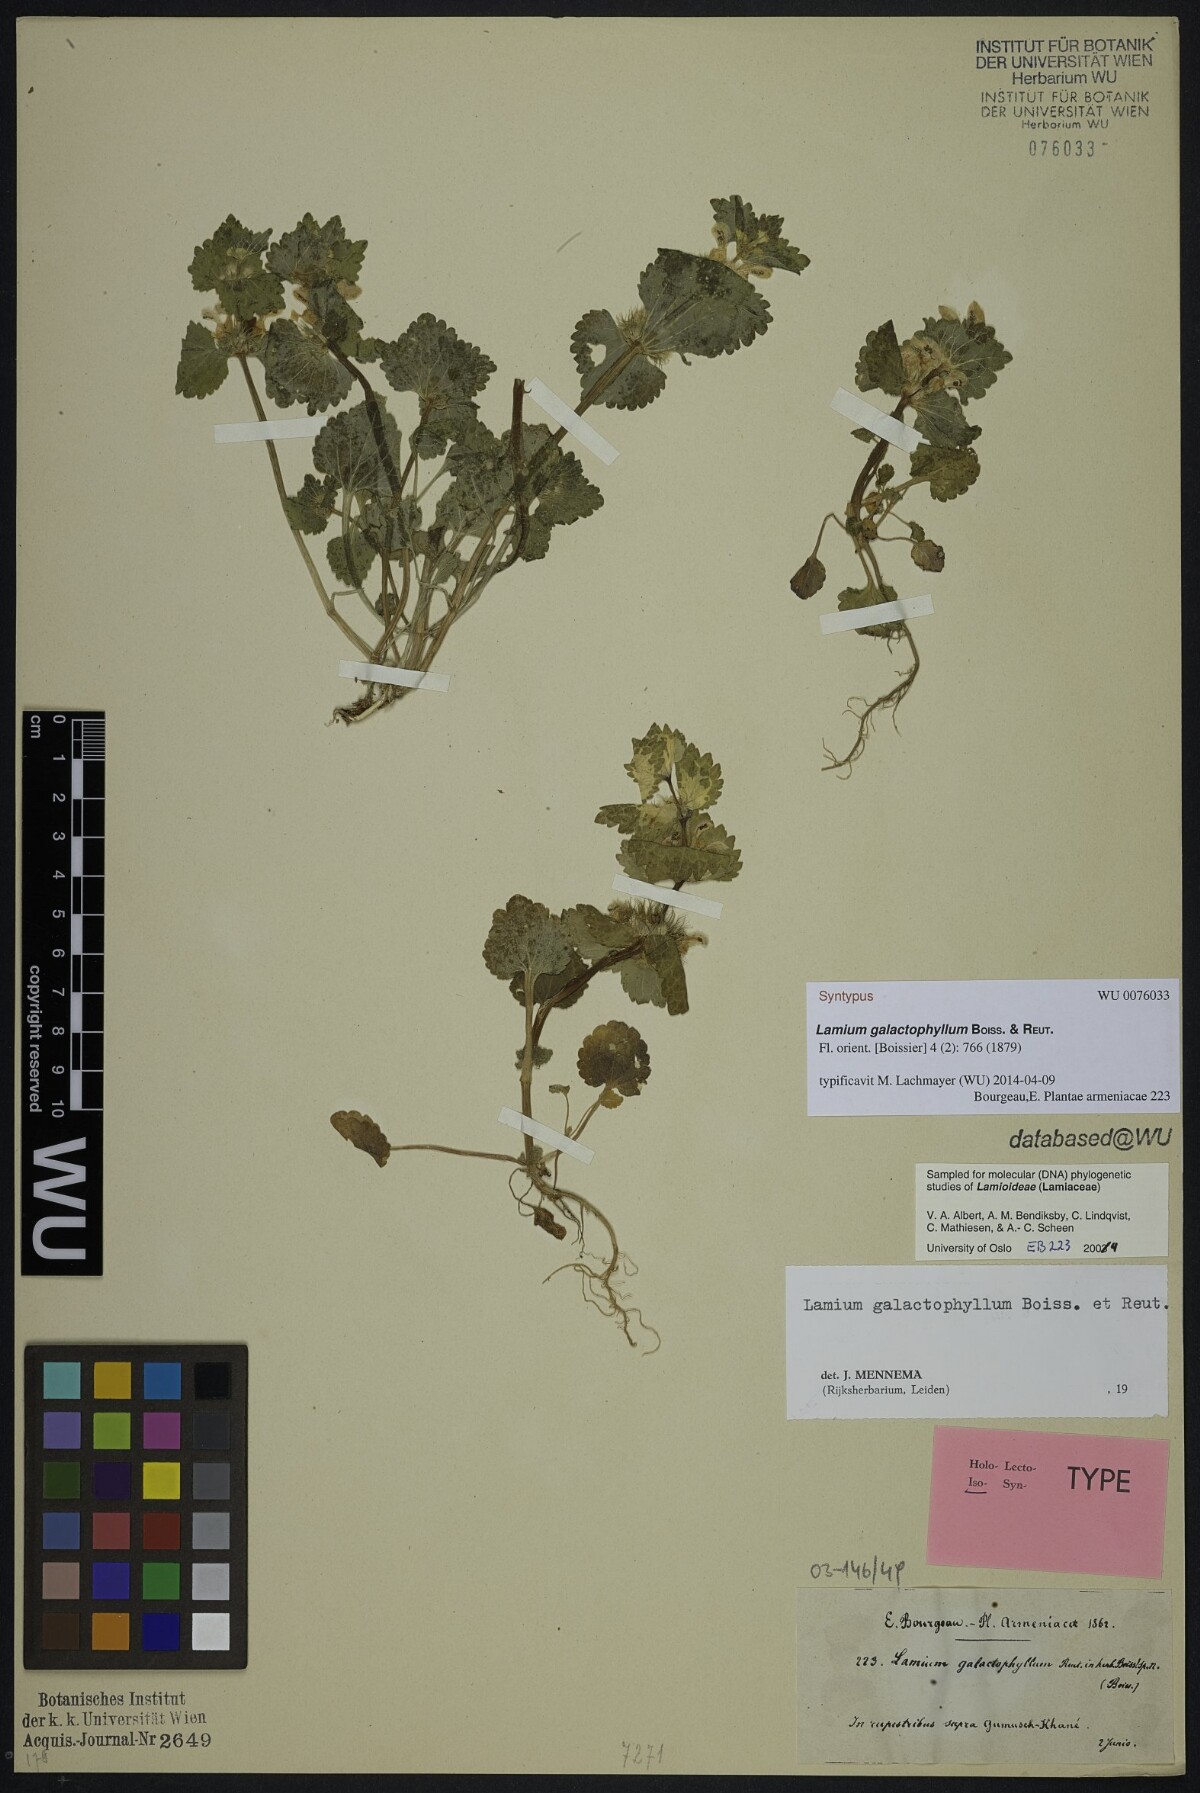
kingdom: Plantae
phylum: Tracheophyta
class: Magnoliopsida
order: Lamiales
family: Lamiaceae
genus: Lamium
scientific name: Lamium galactophyllum
